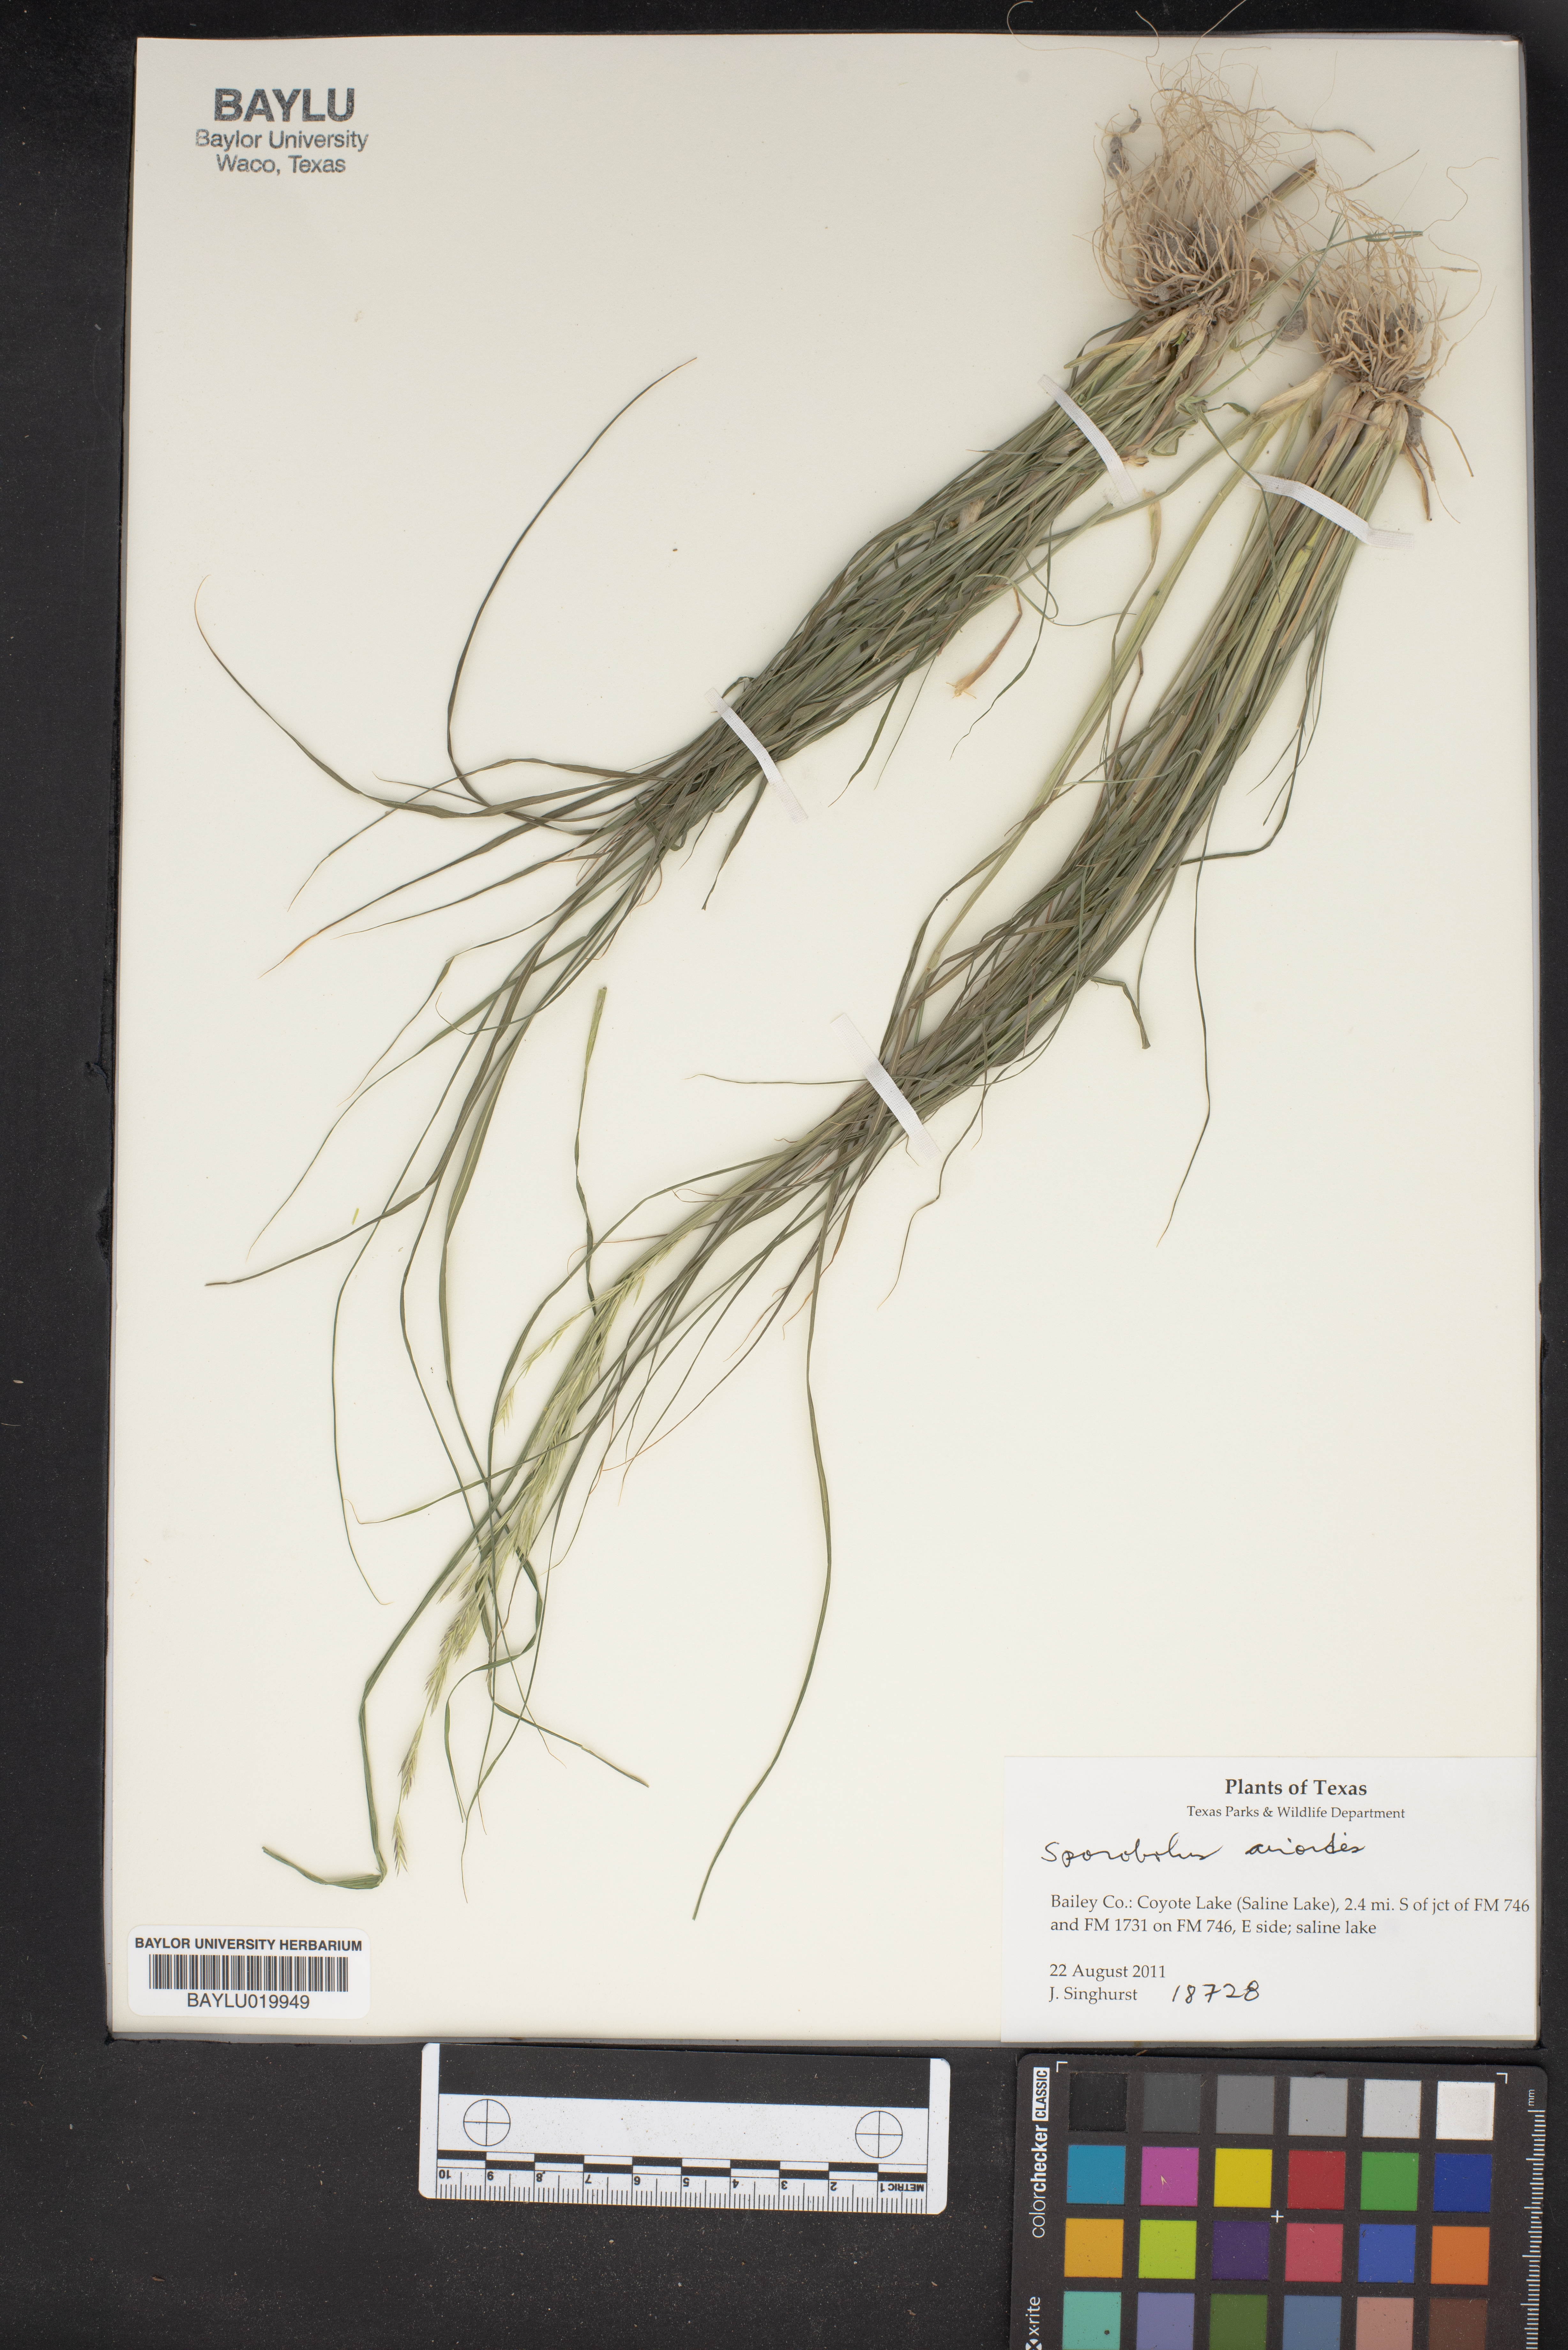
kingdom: Plantae
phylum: Tracheophyta
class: Liliopsida
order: Poales
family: Poaceae
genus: Sporobolus
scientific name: Sporobolus airoides
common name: Alkali sacaton
